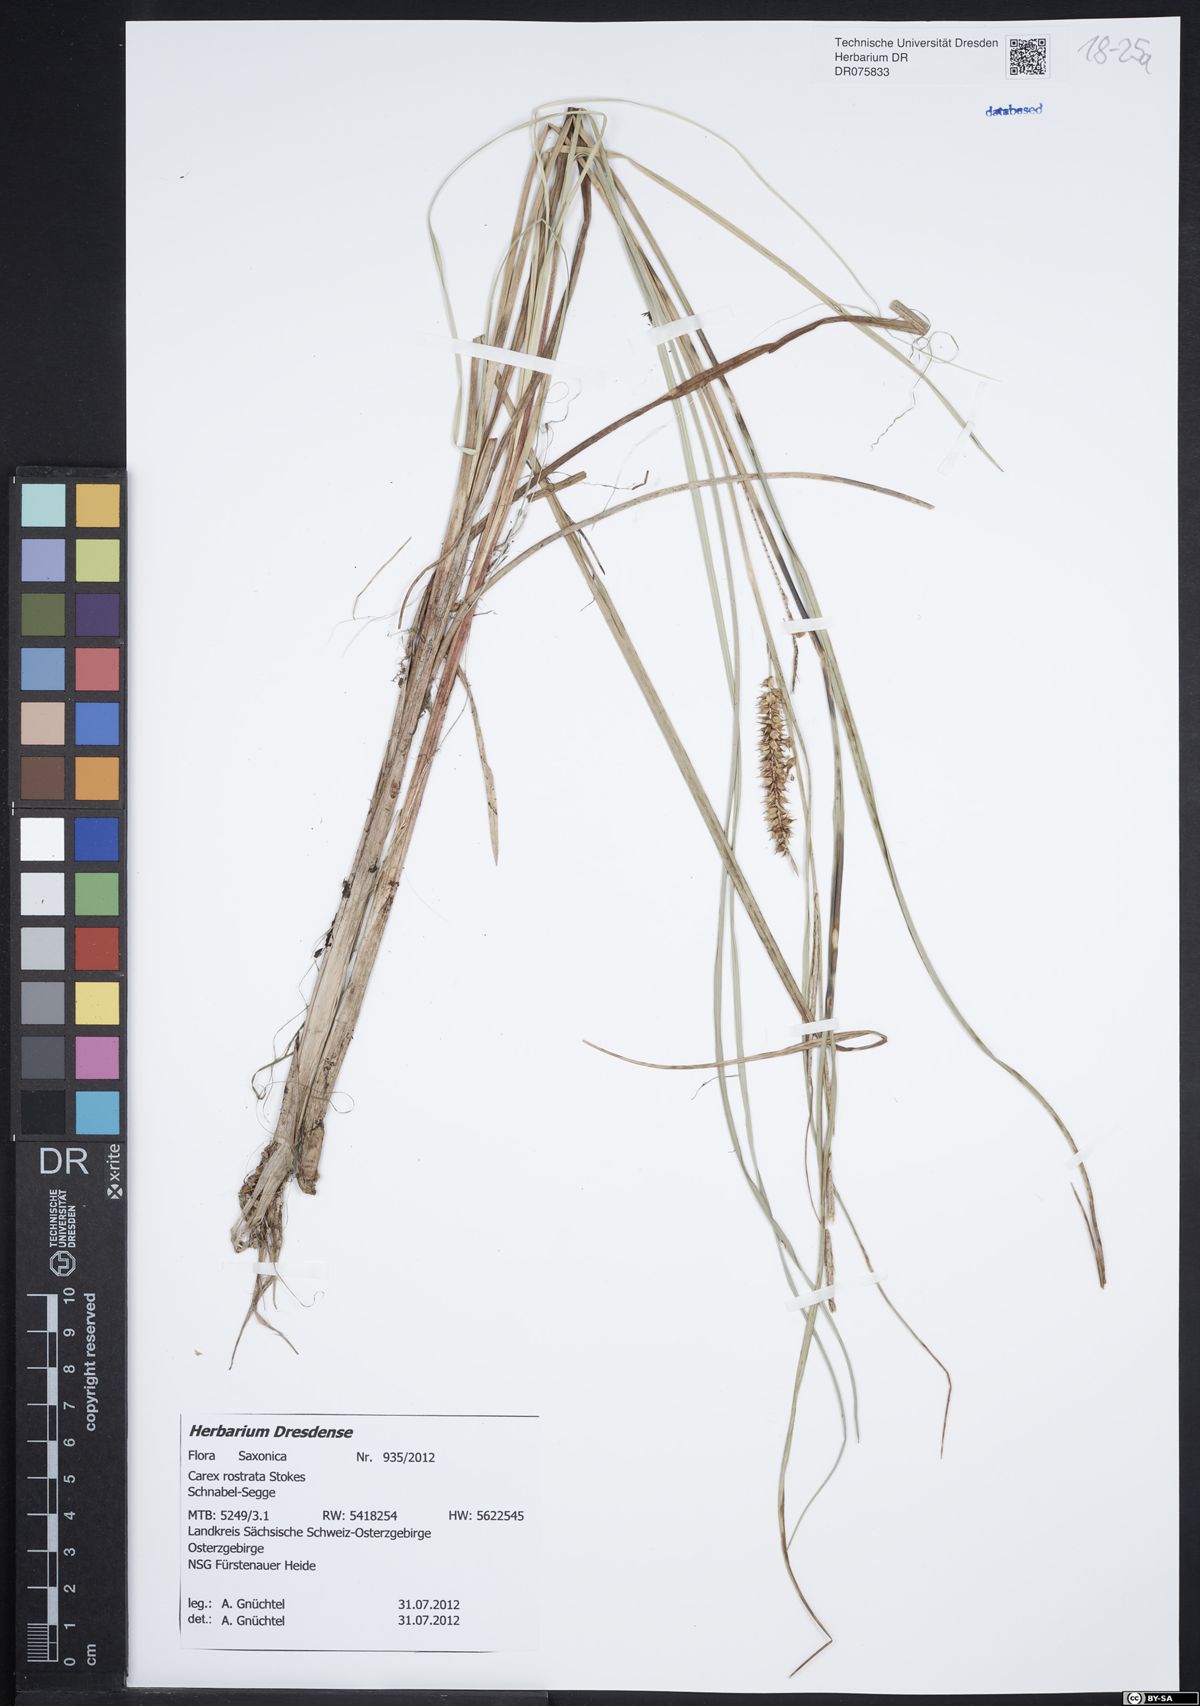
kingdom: Plantae
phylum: Tracheophyta
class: Liliopsida
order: Poales
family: Cyperaceae
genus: Carex
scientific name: Carex rostrata
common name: Bottle sedge
